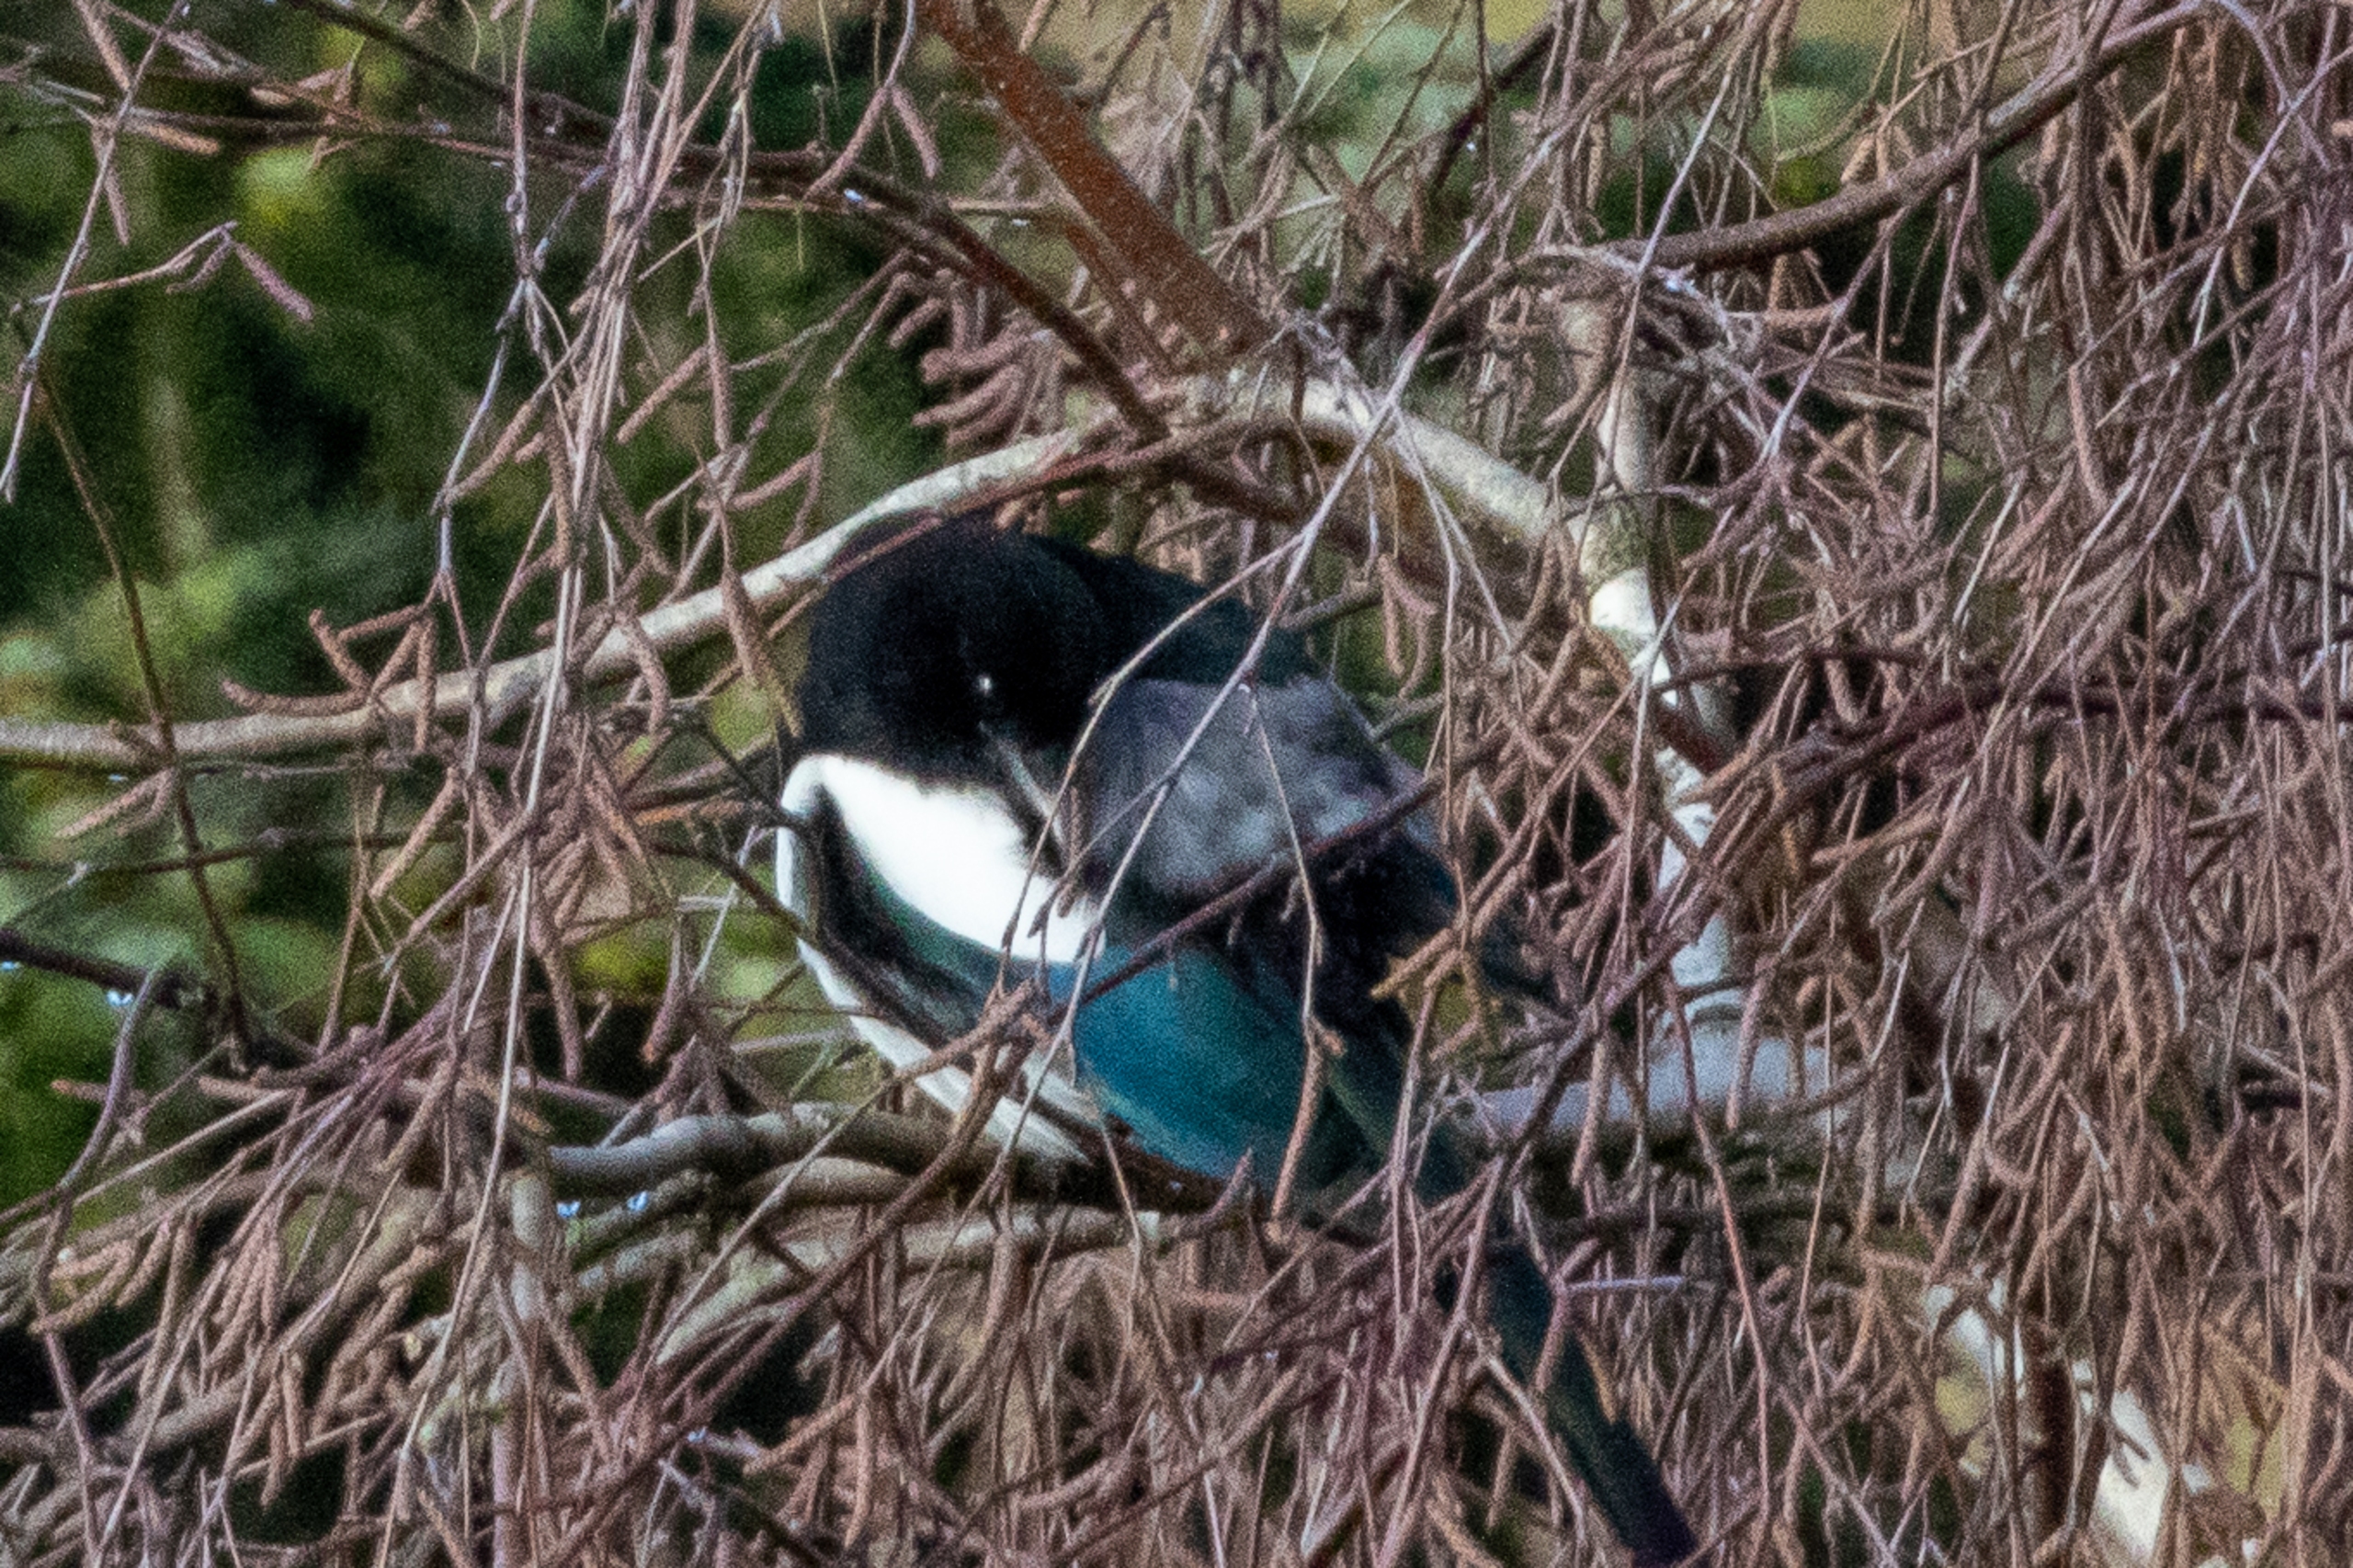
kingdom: Animalia
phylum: Chordata
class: Aves
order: Passeriformes
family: Corvidae
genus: Pica
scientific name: Pica pica
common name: Husskade
